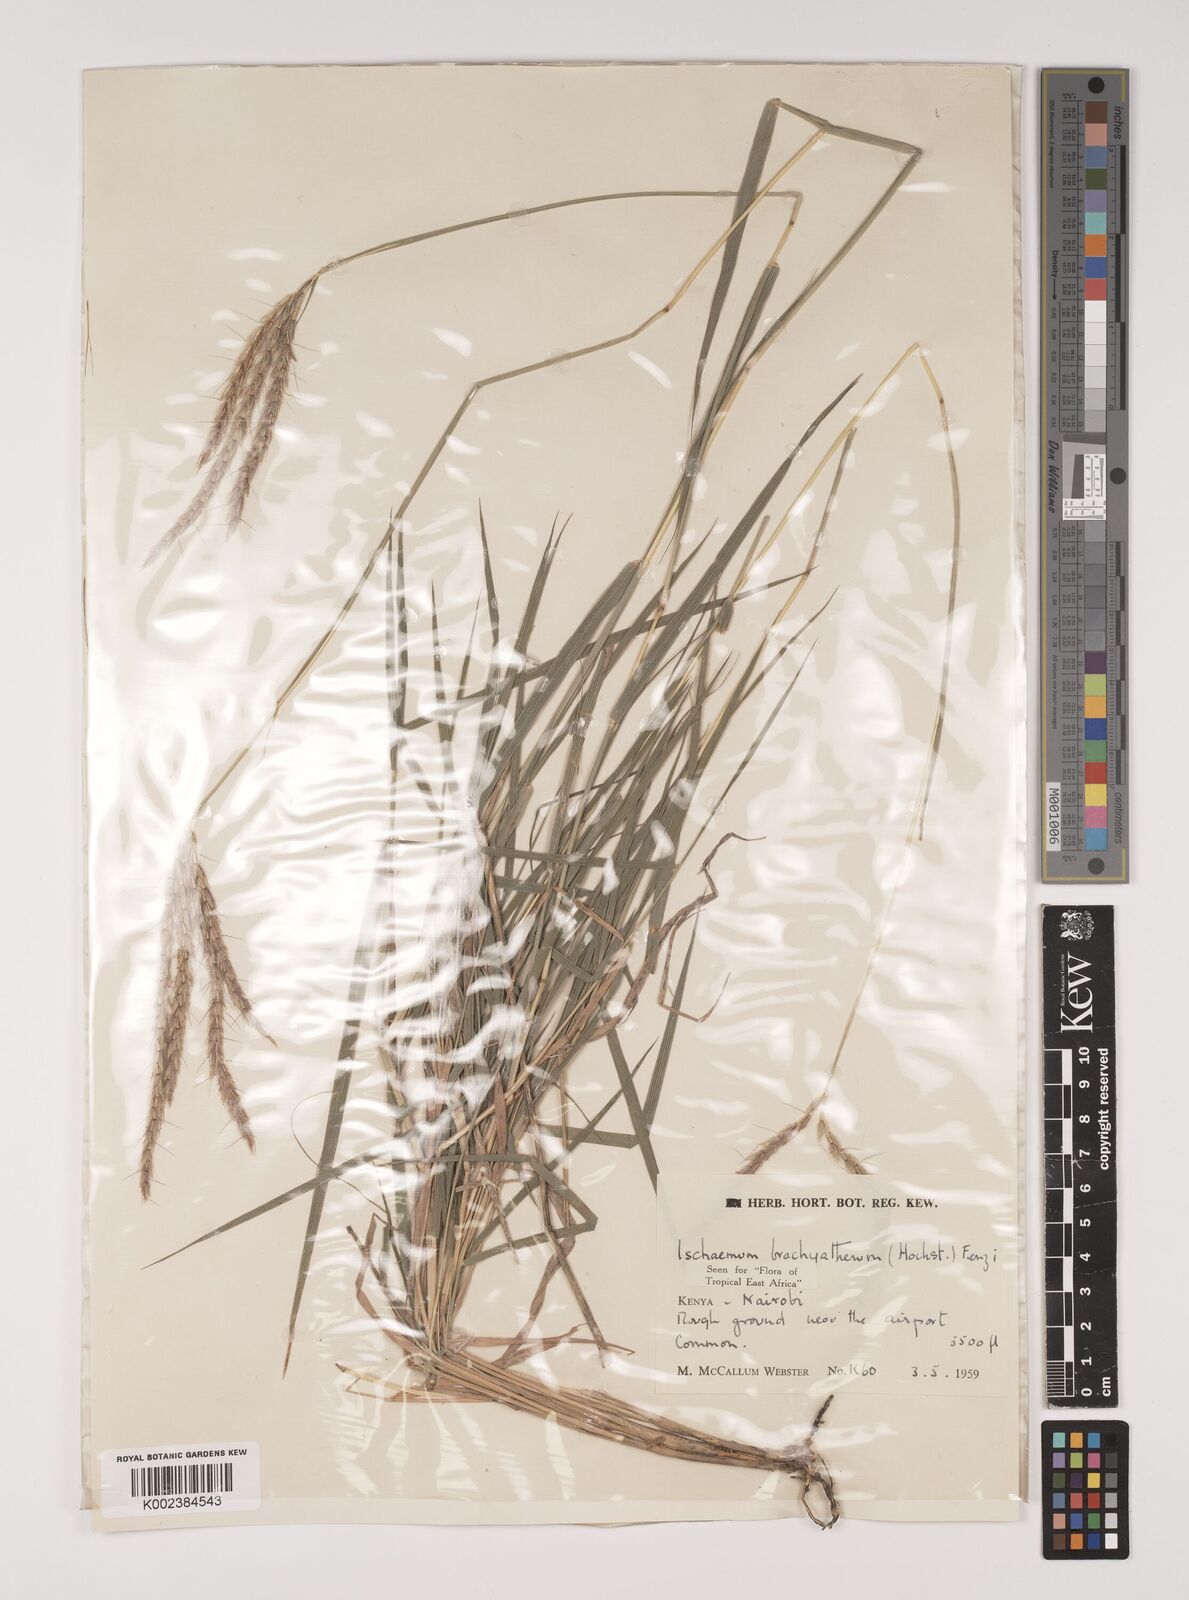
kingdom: Plantae
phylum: Tracheophyta
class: Liliopsida
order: Poales
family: Poaceae
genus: Ischaemum
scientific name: Ischaemum afrum
